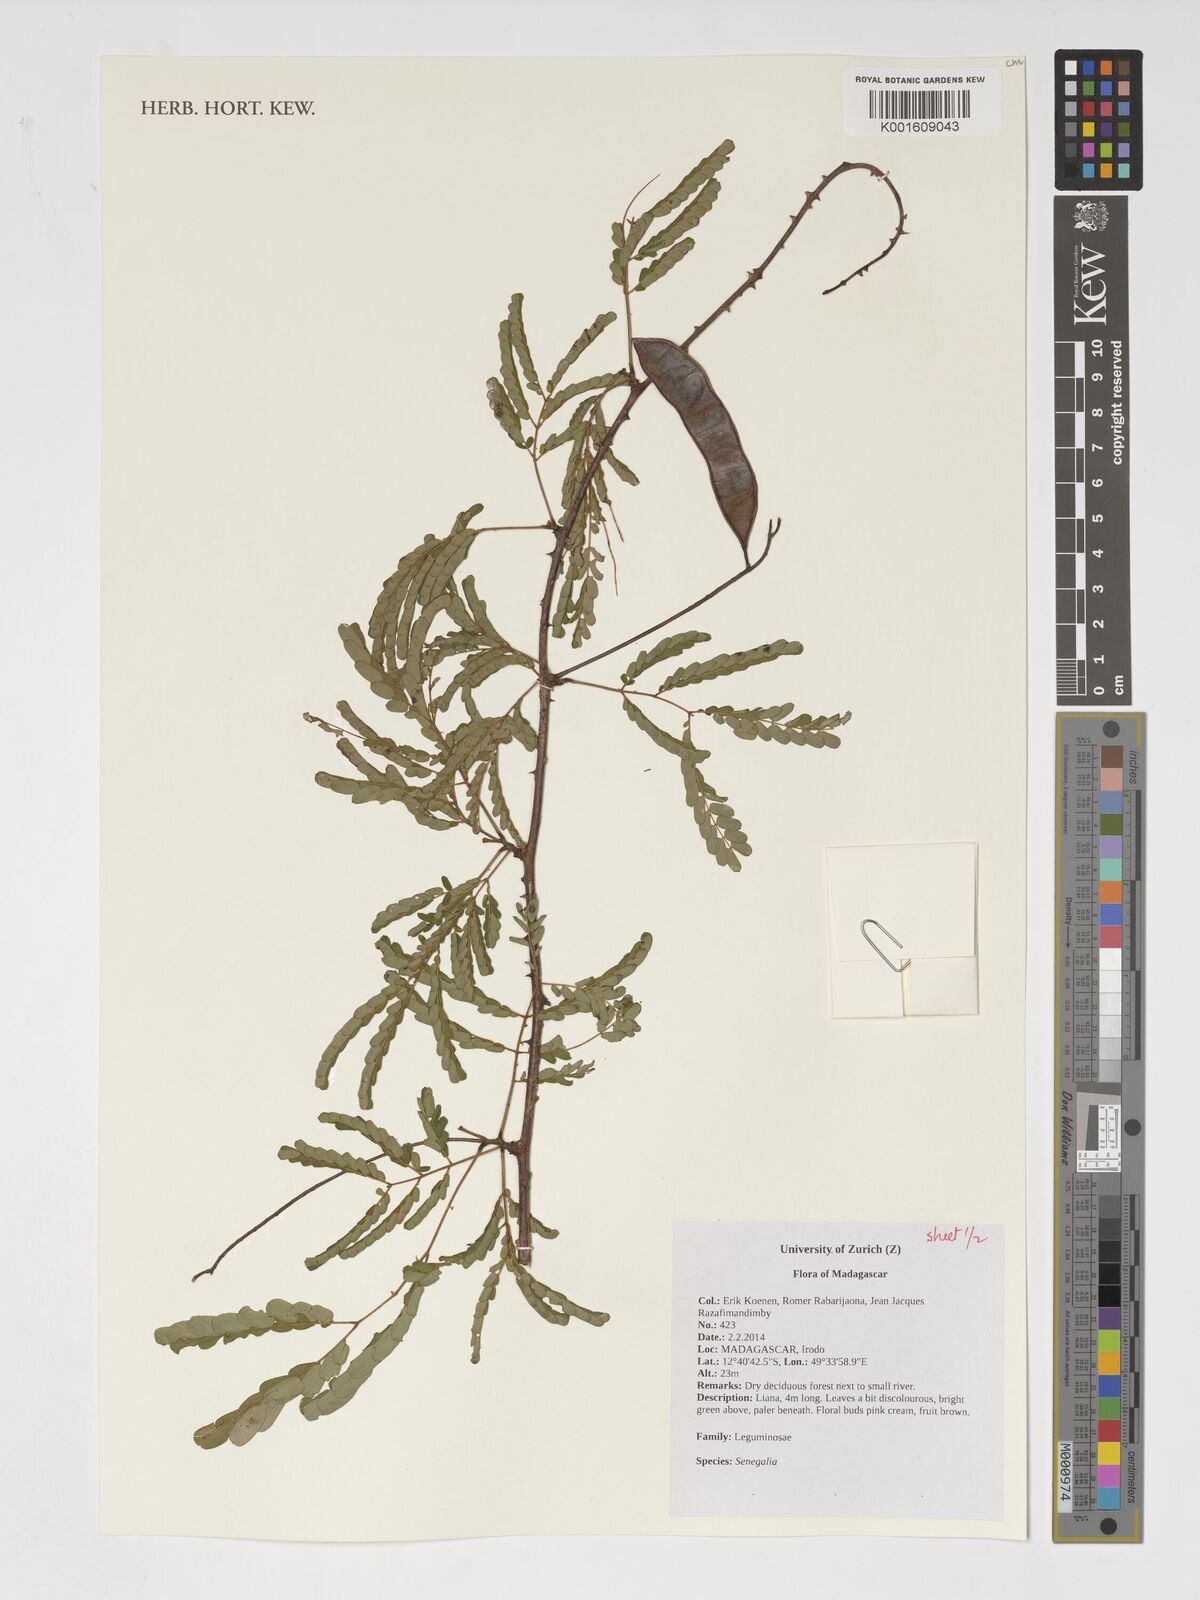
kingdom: Plantae
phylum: Tracheophyta
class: Magnoliopsida
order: Fabales
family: Fabaceae
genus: Senegalia
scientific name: Senegalia
